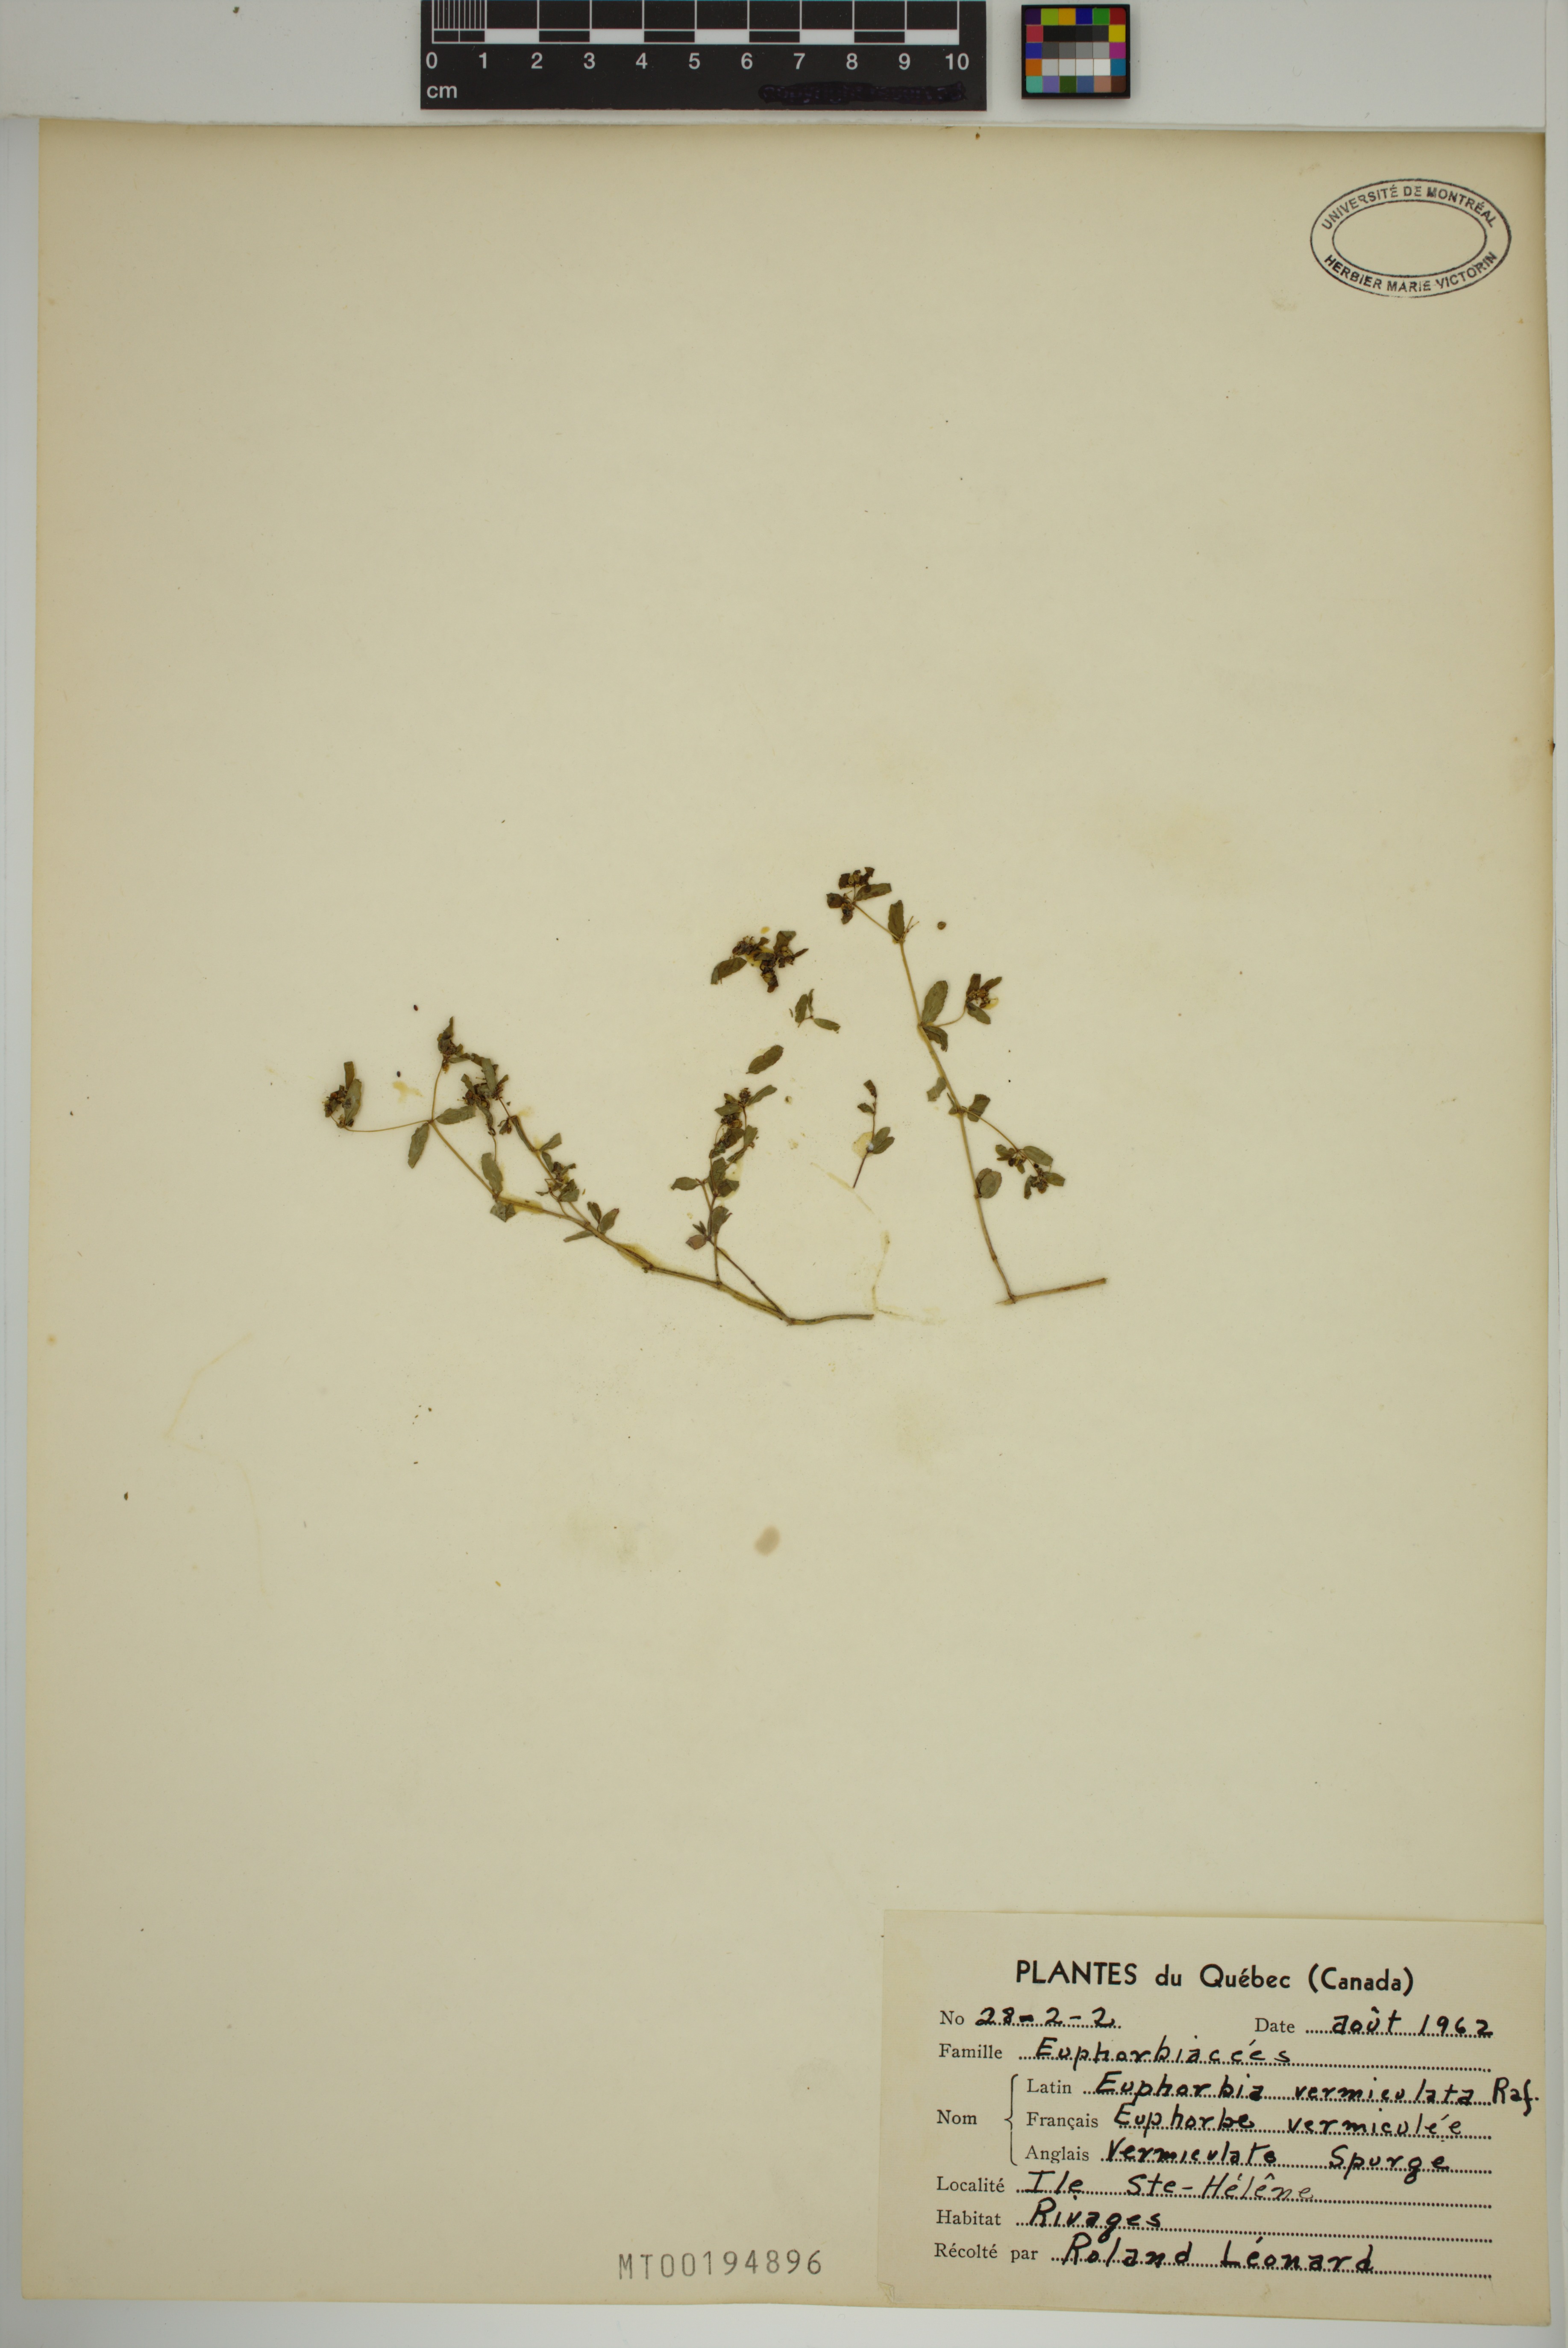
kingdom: Plantae
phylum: Tracheophyta
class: Magnoliopsida
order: Malpighiales
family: Euphorbiaceae
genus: Euphorbia
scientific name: Euphorbia vermiculata
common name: Hairy spurge
